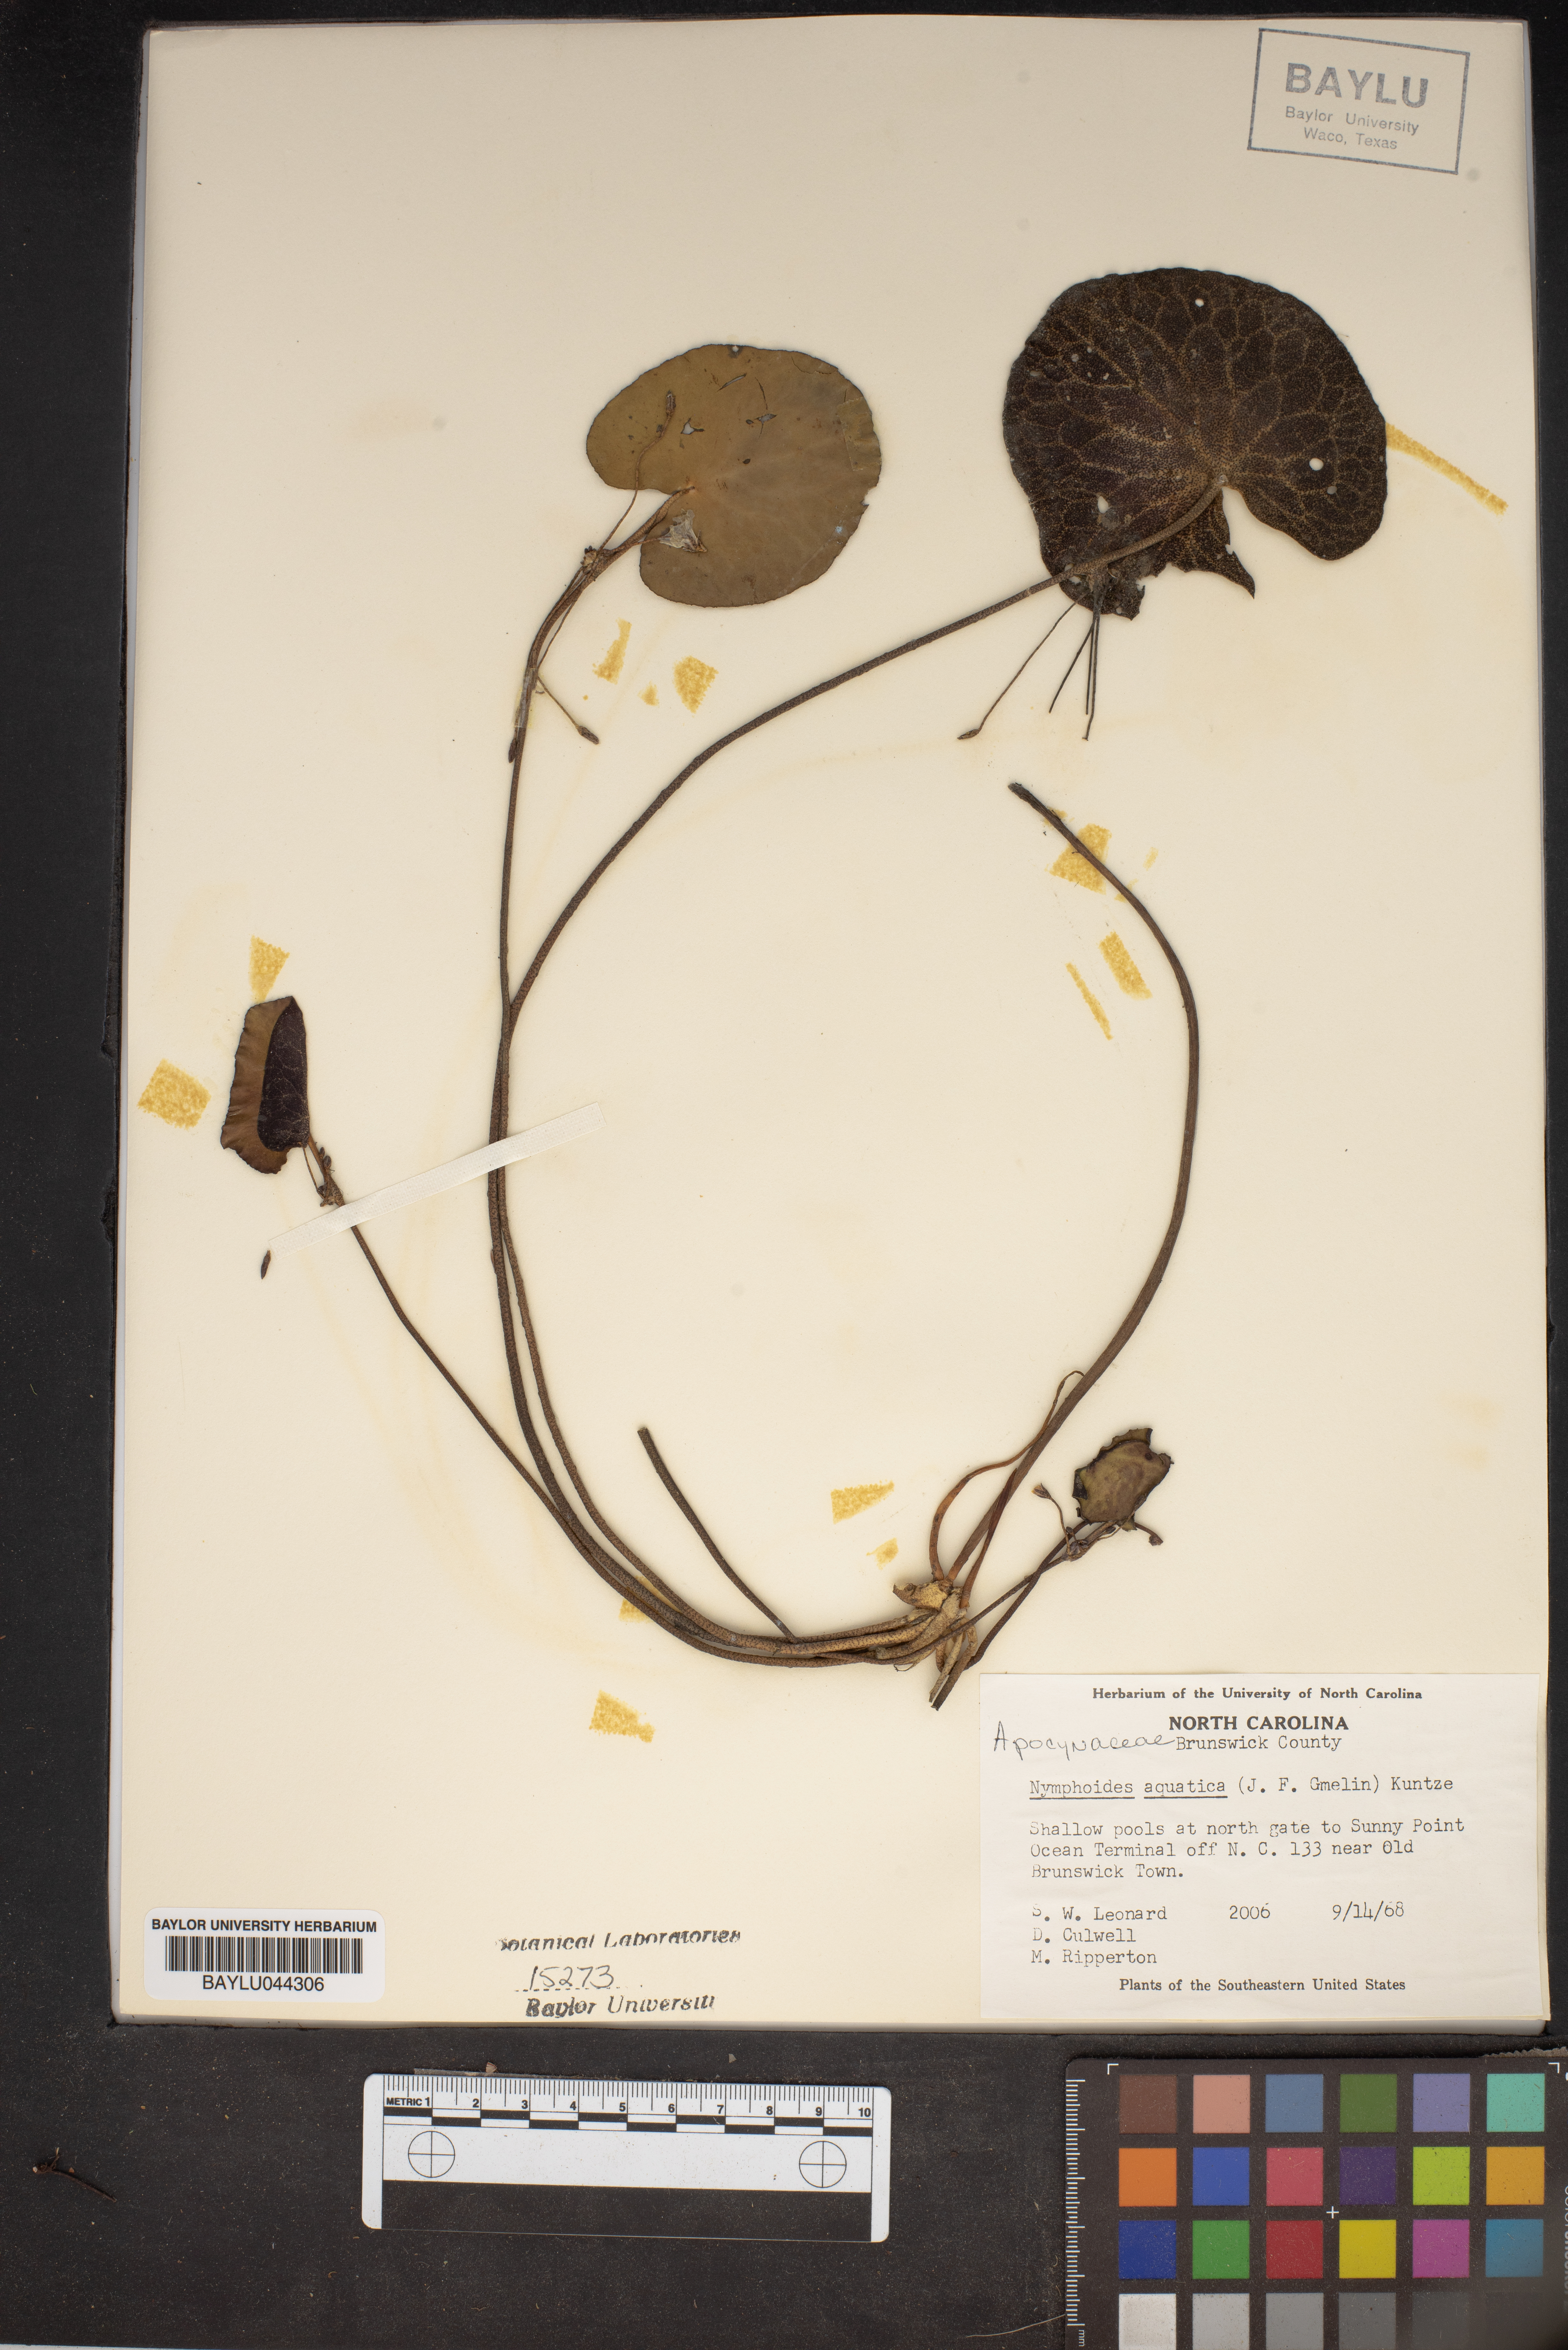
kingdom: Plantae
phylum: Tracheophyta
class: Magnoliopsida
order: Asterales
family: Menyanthaceae
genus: Nymphoides
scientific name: Nymphoides aquatica
